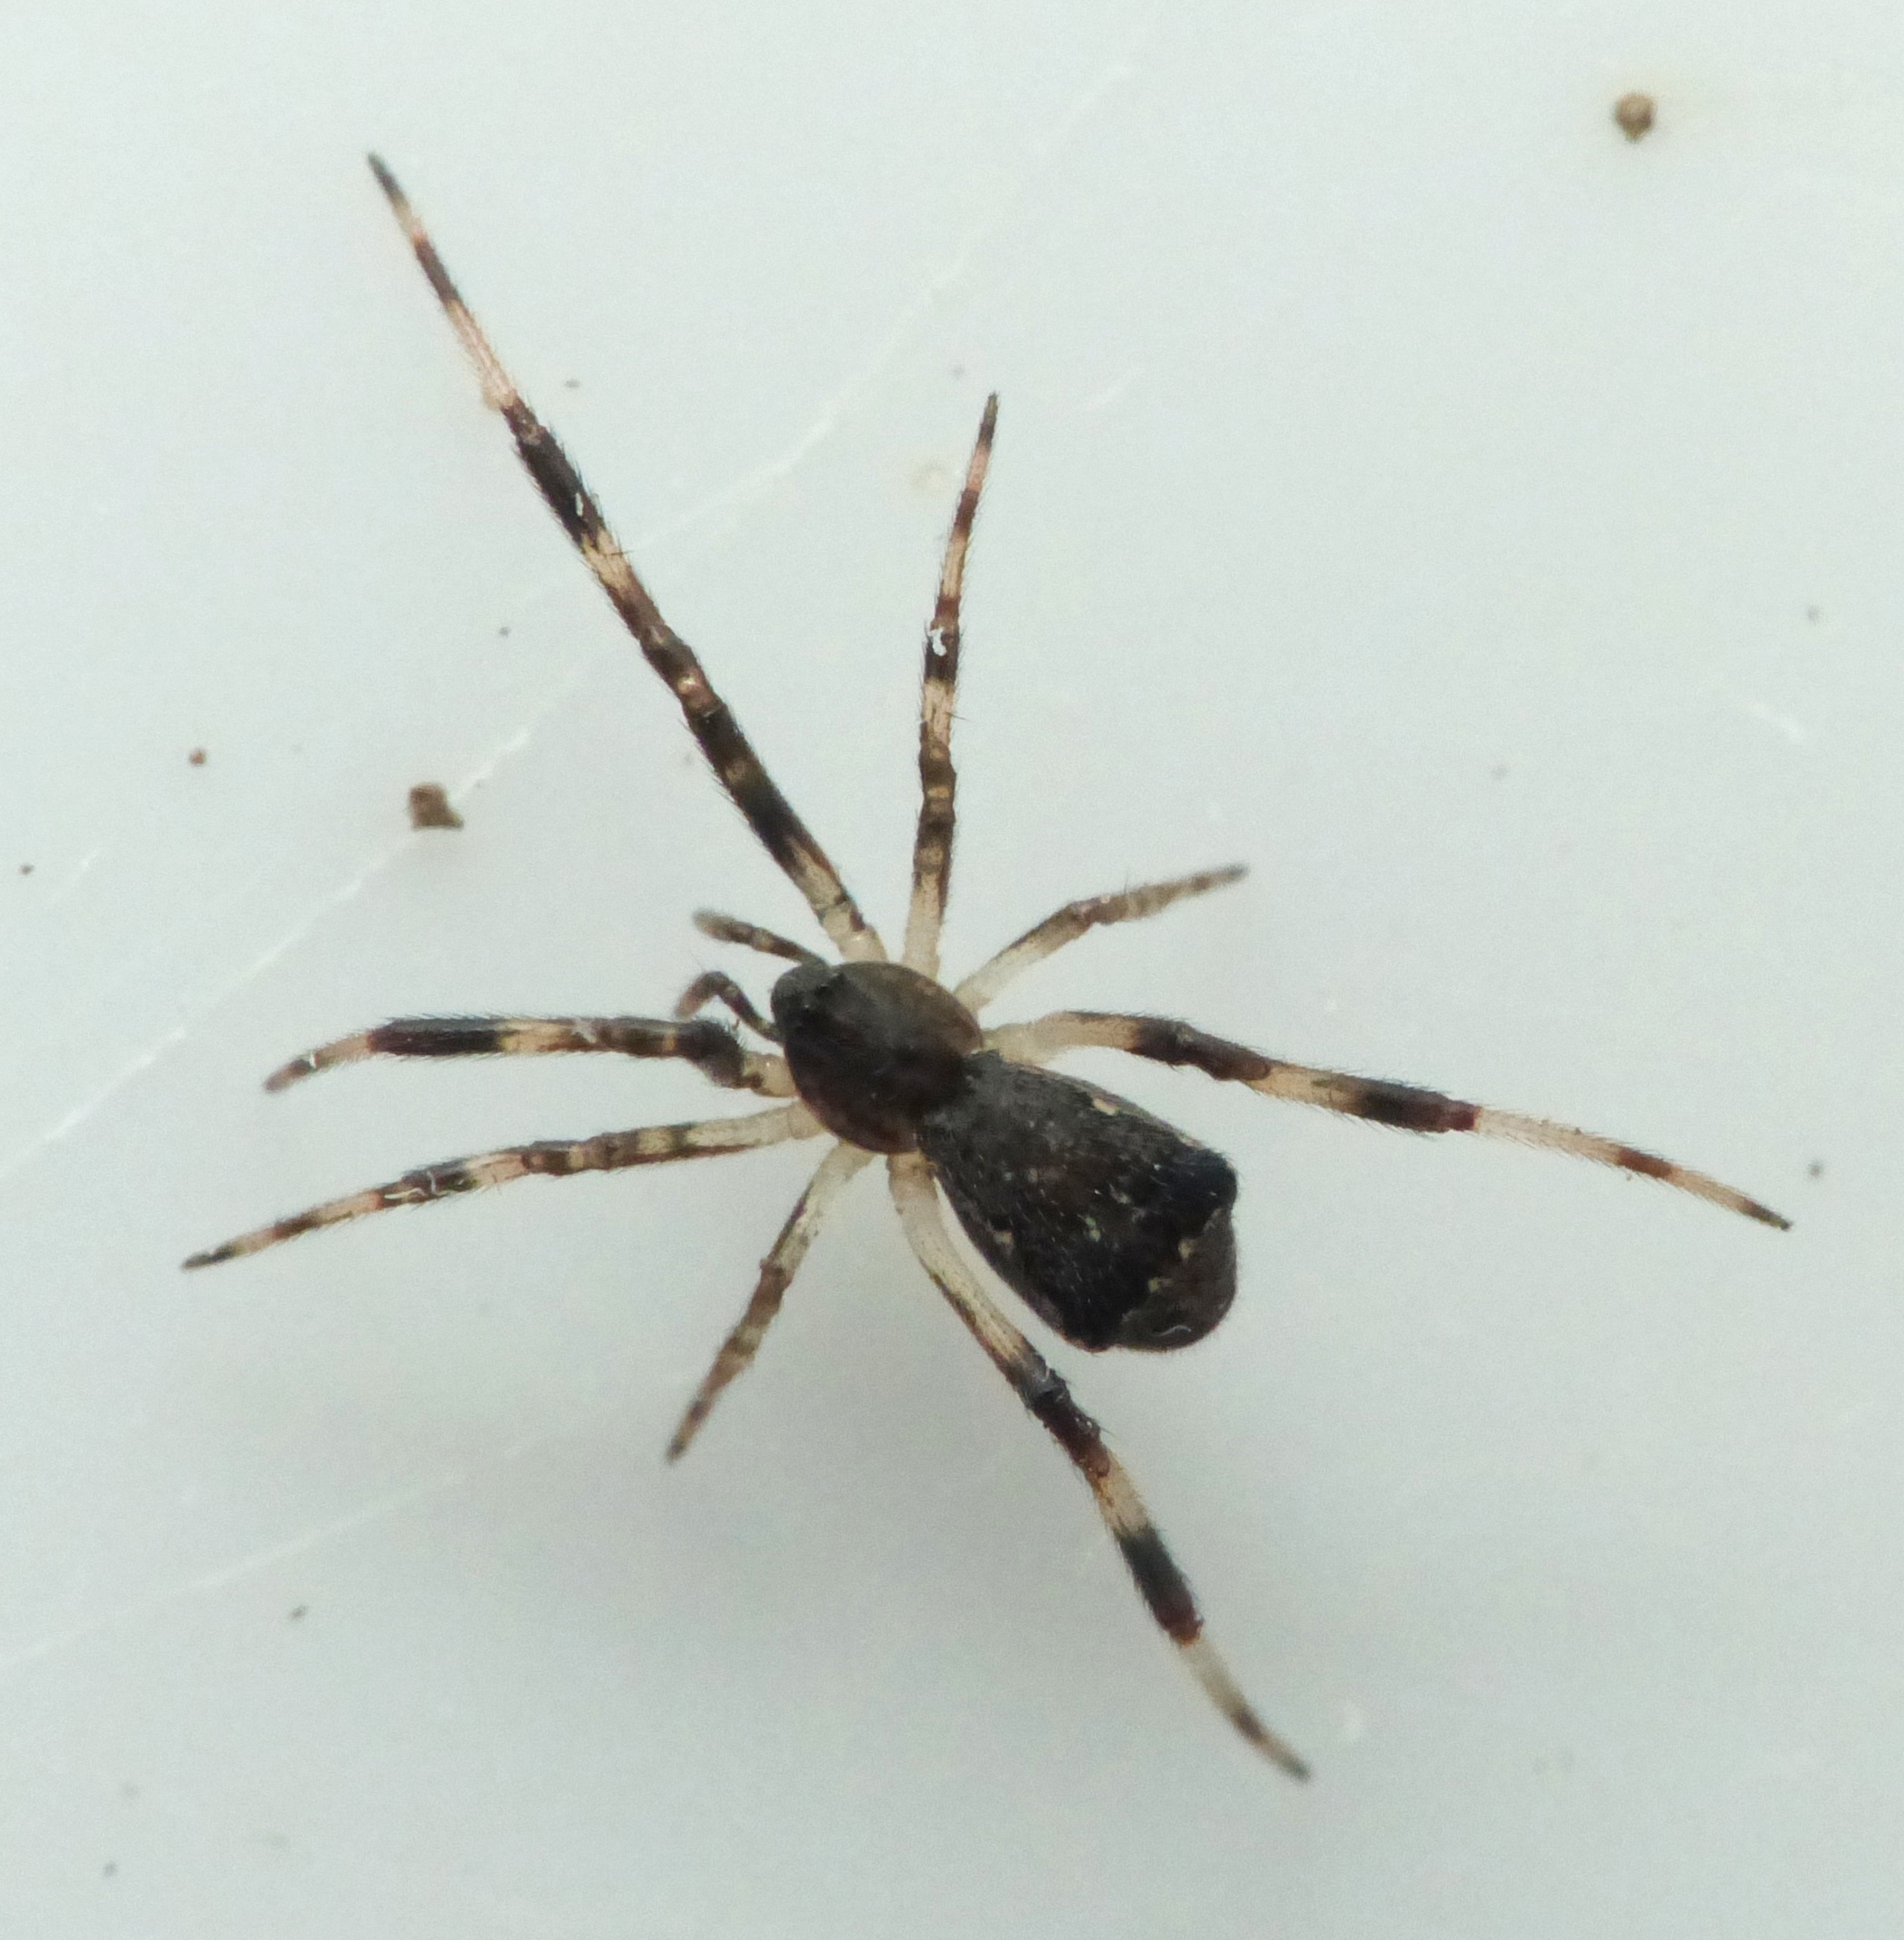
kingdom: Animalia
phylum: Arthropoda
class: Arachnida
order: Araneae
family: Theridiidae
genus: Episinus
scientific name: Episinus angulatus
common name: Balalajkaedderkop
